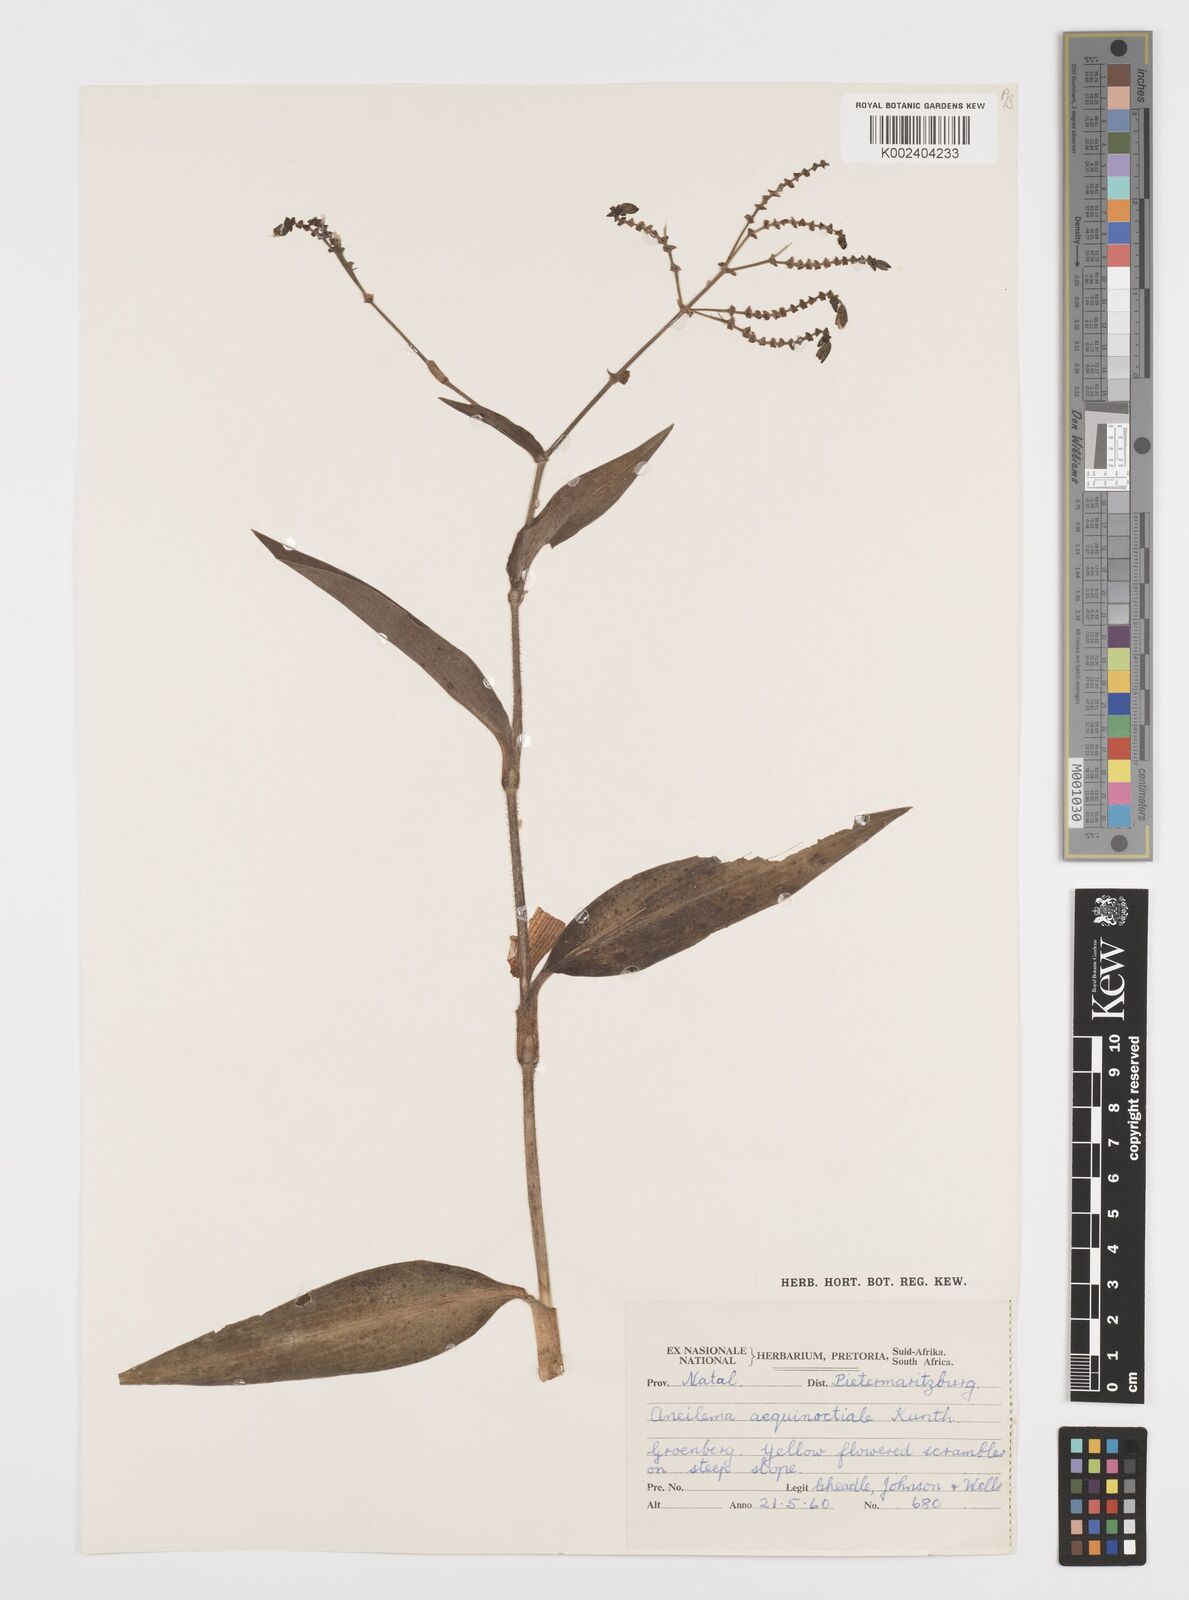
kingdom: Plantae
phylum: Tracheophyta
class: Liliopsida
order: Commelinales
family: Commelinaceae
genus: Aneilema
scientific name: Aneilema aequinoctiale
